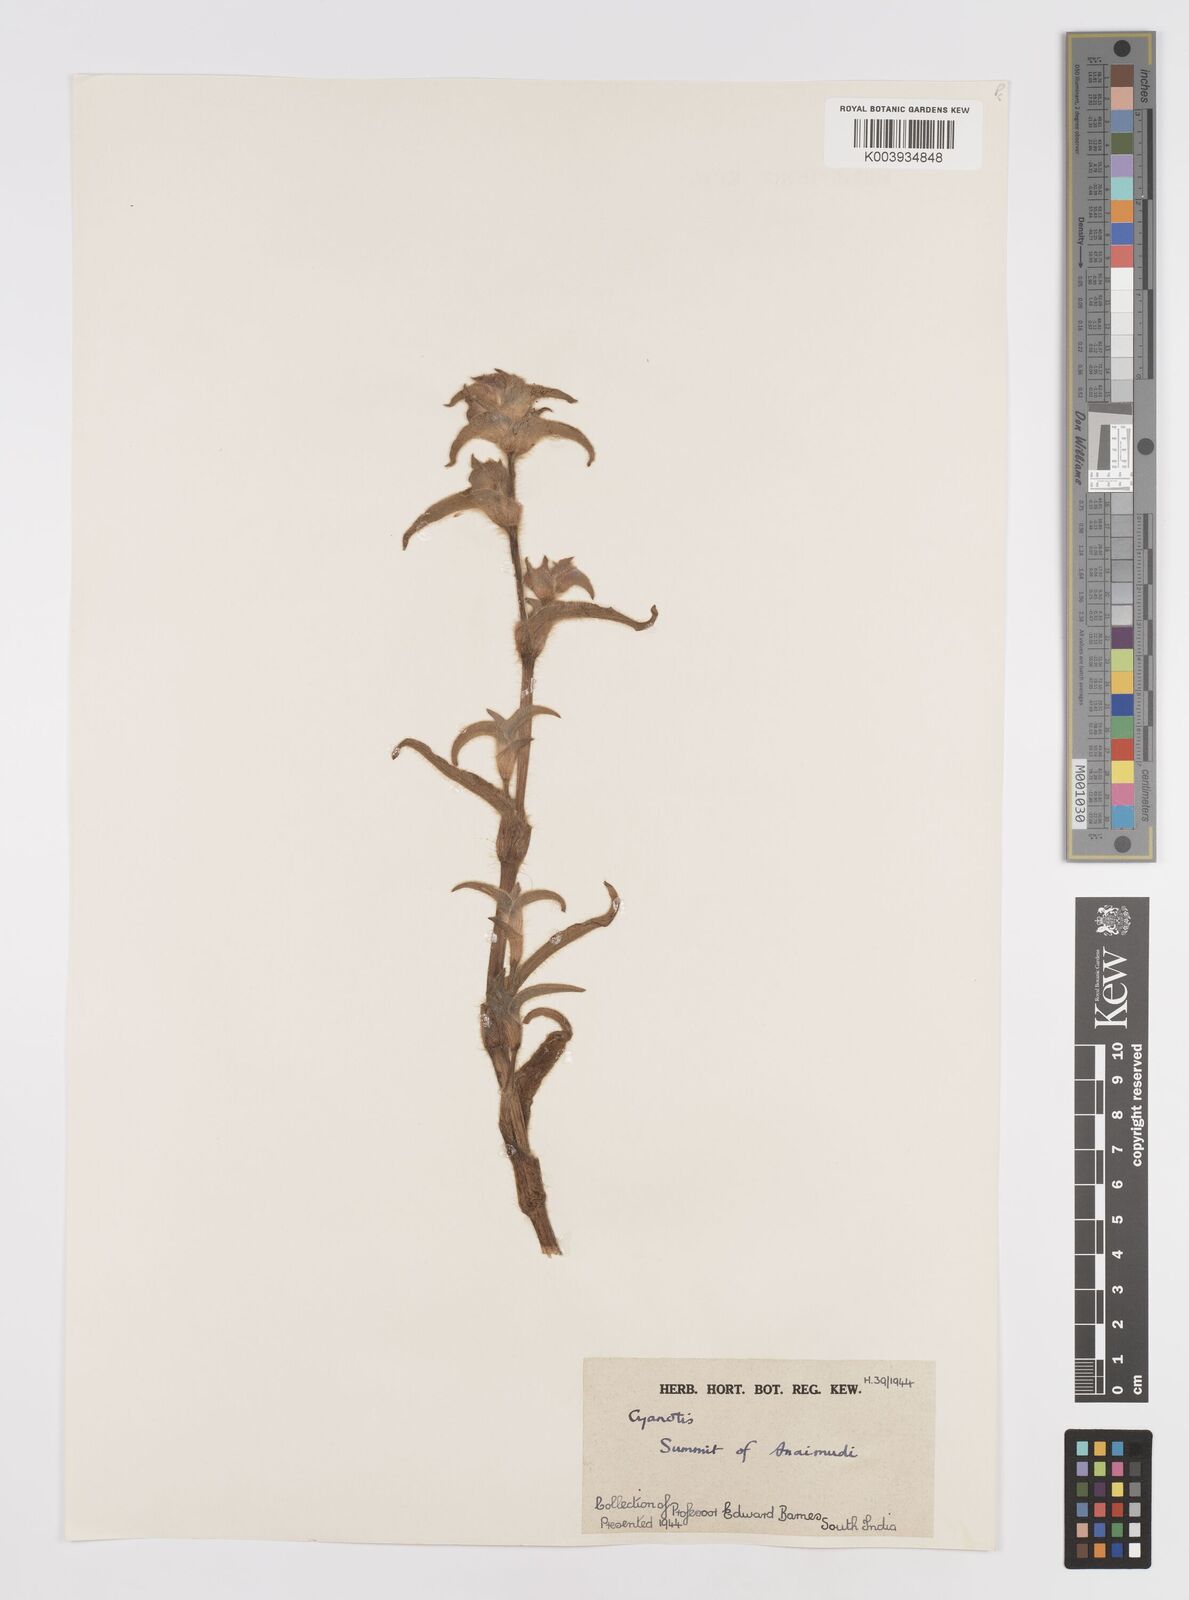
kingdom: Plantae
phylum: Tracheophyta
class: Liliopsida
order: Commelinales
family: Commelinaceae
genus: Cyanotis
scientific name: Cyanotis
